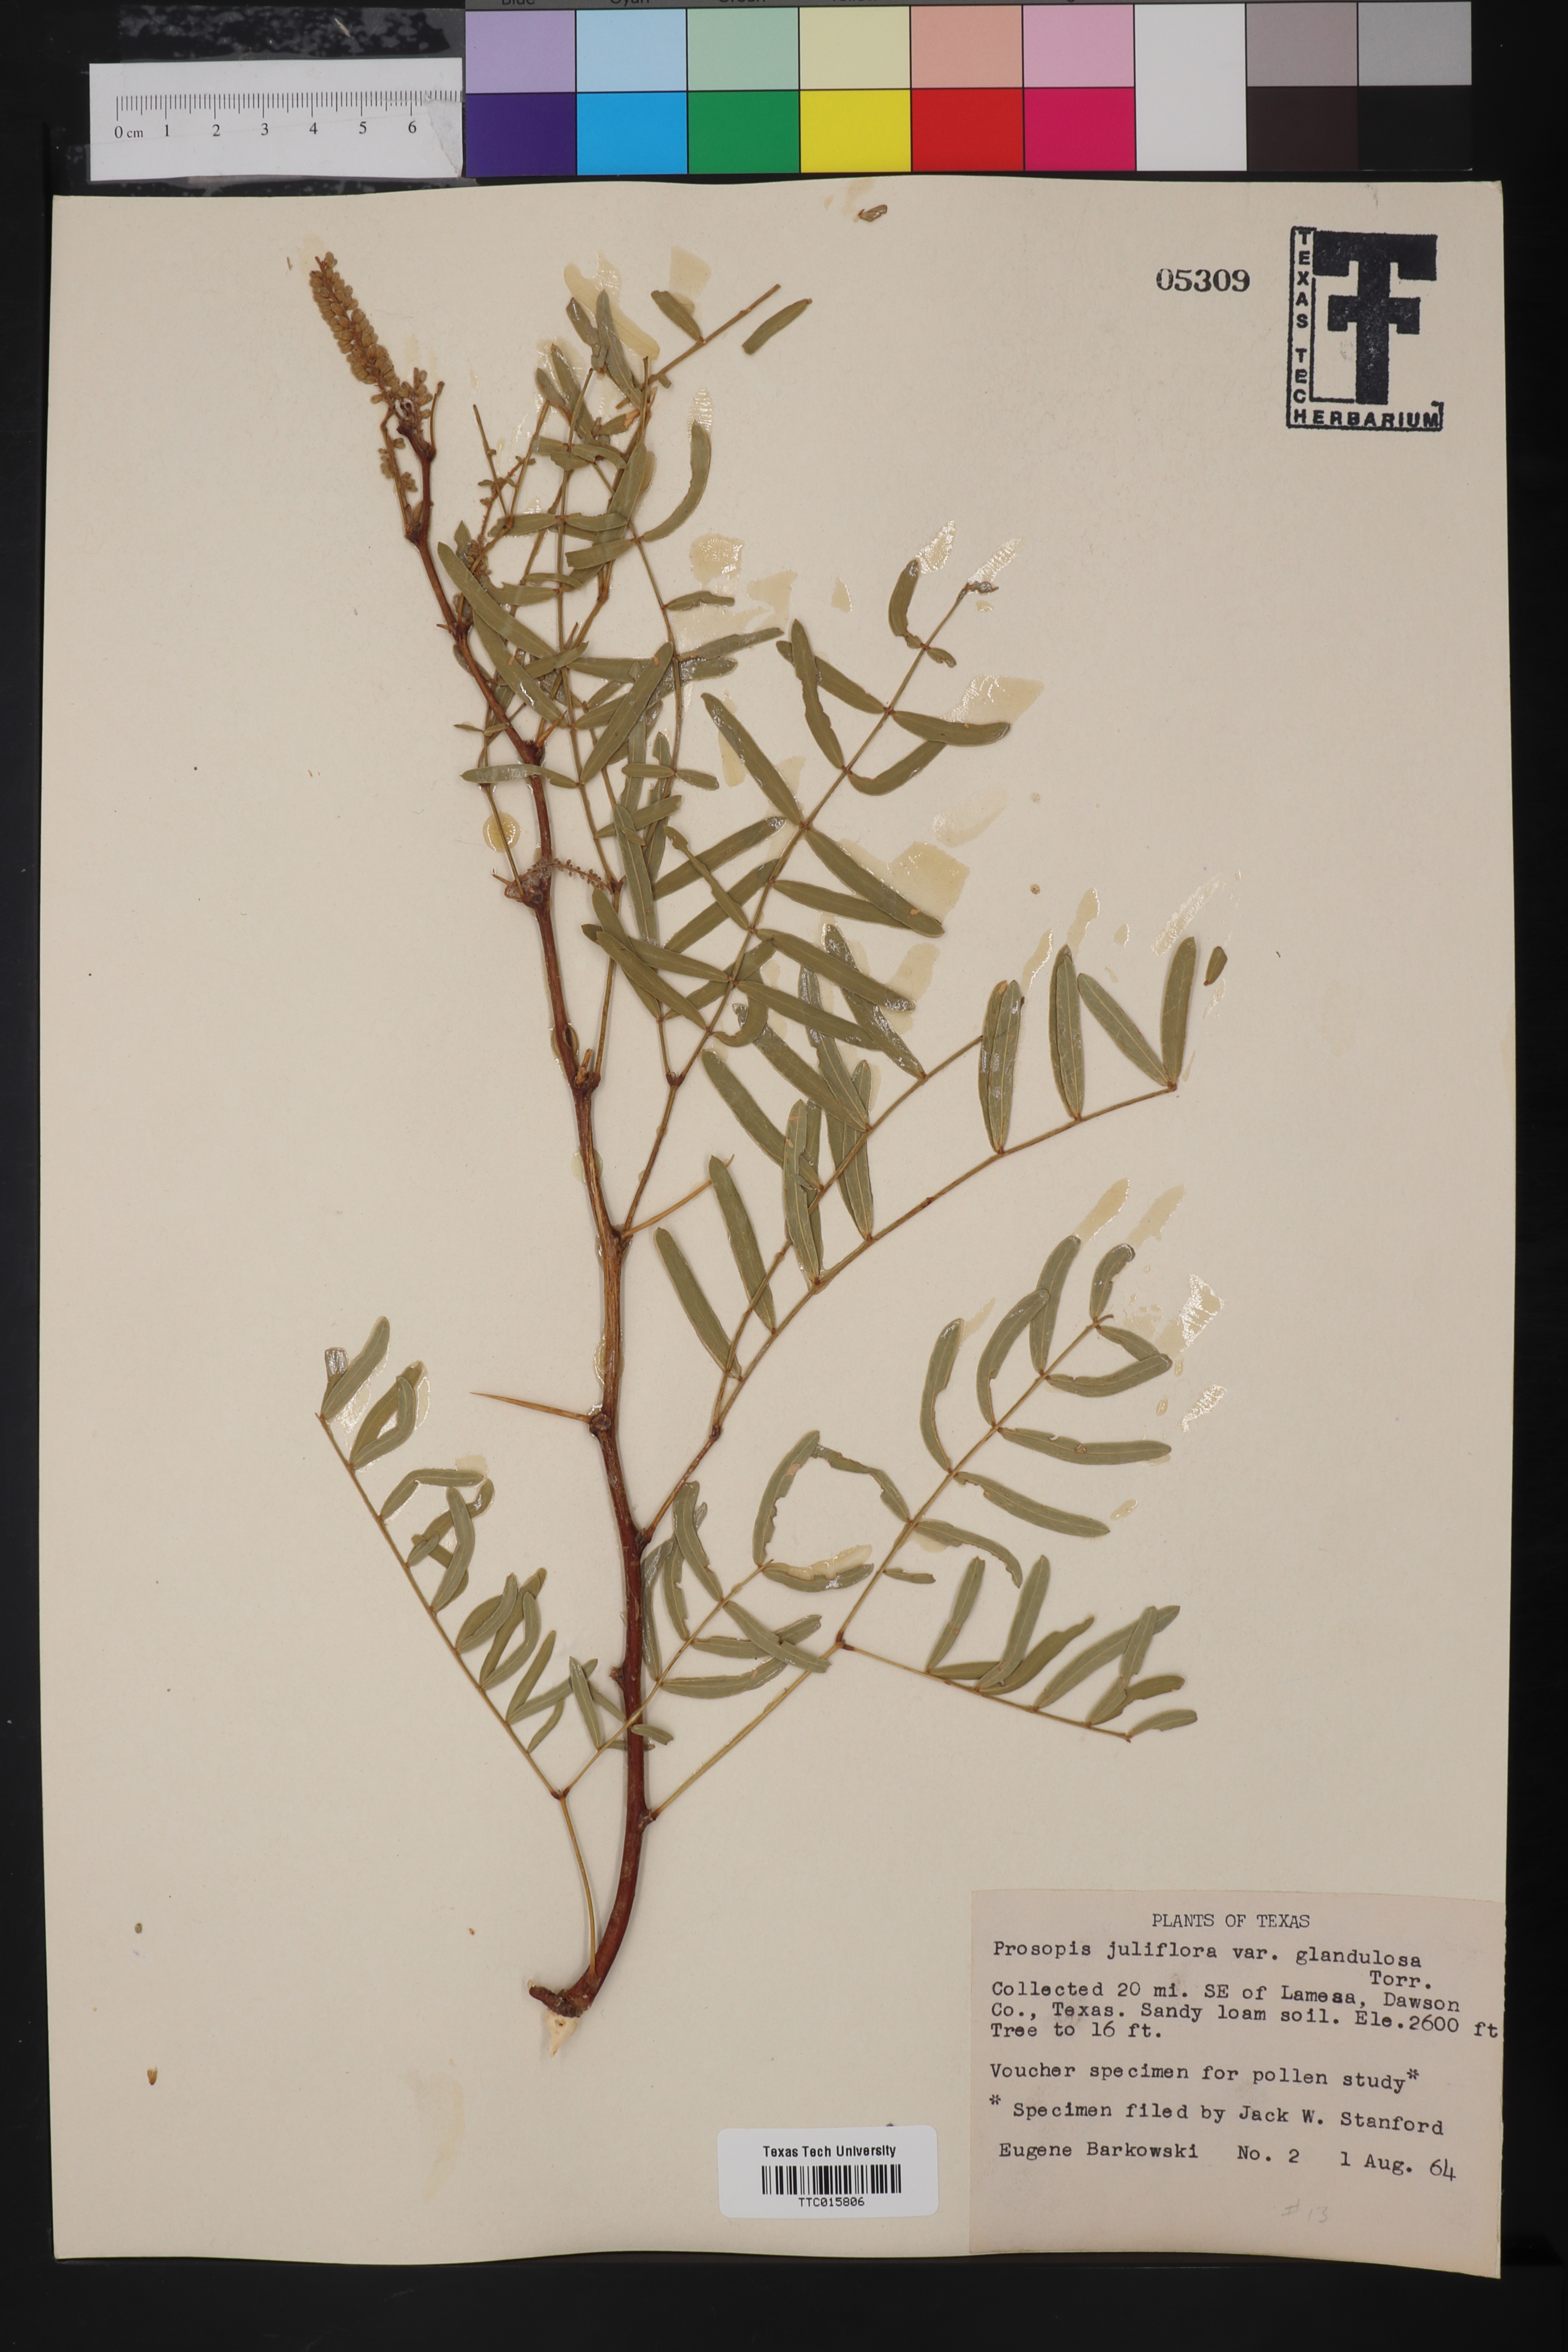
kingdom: Plantae
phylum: Tracheophyta
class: Magnoliopsida
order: Fabales
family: Fabaceae
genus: Prosopis
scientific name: Prosopis glandulosa
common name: Honey mesquite
